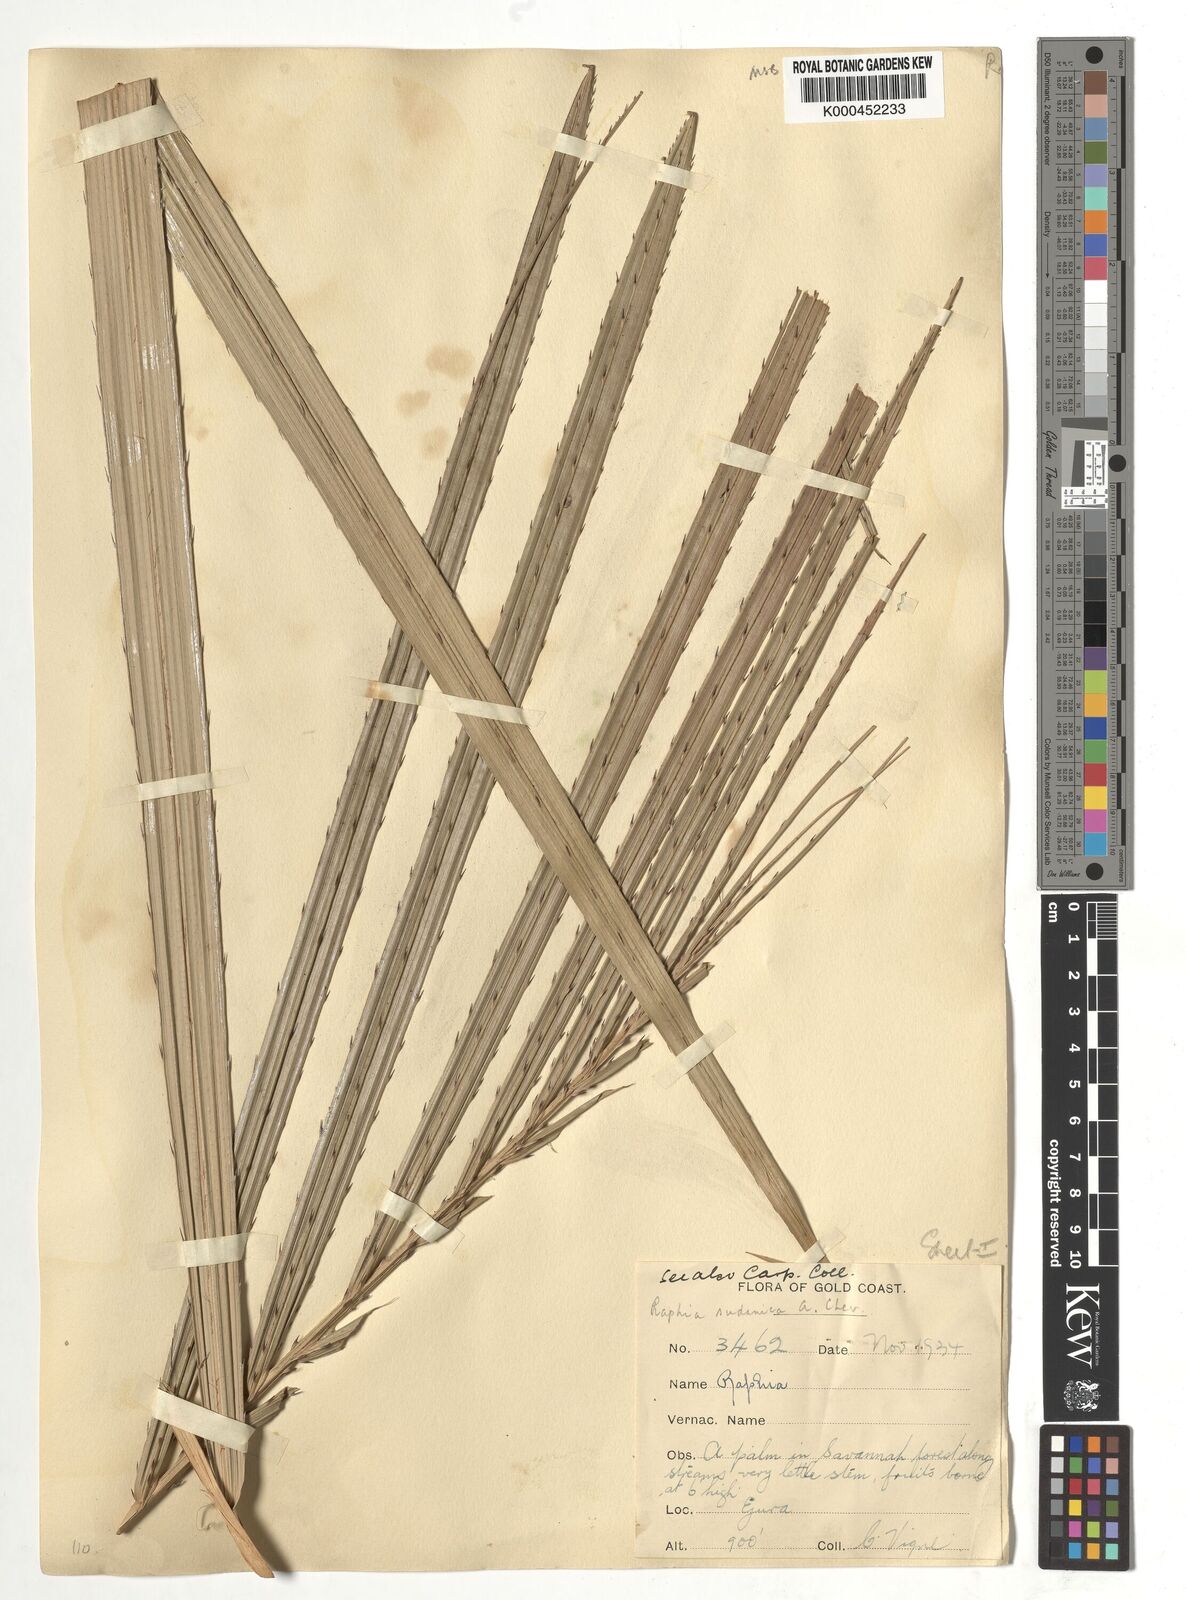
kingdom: Plantae
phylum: Tracheophyta
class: Liliopsida
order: Arecales
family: Arecaceae
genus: Raphia
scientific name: Raphia sudanica
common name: Northern raphia
